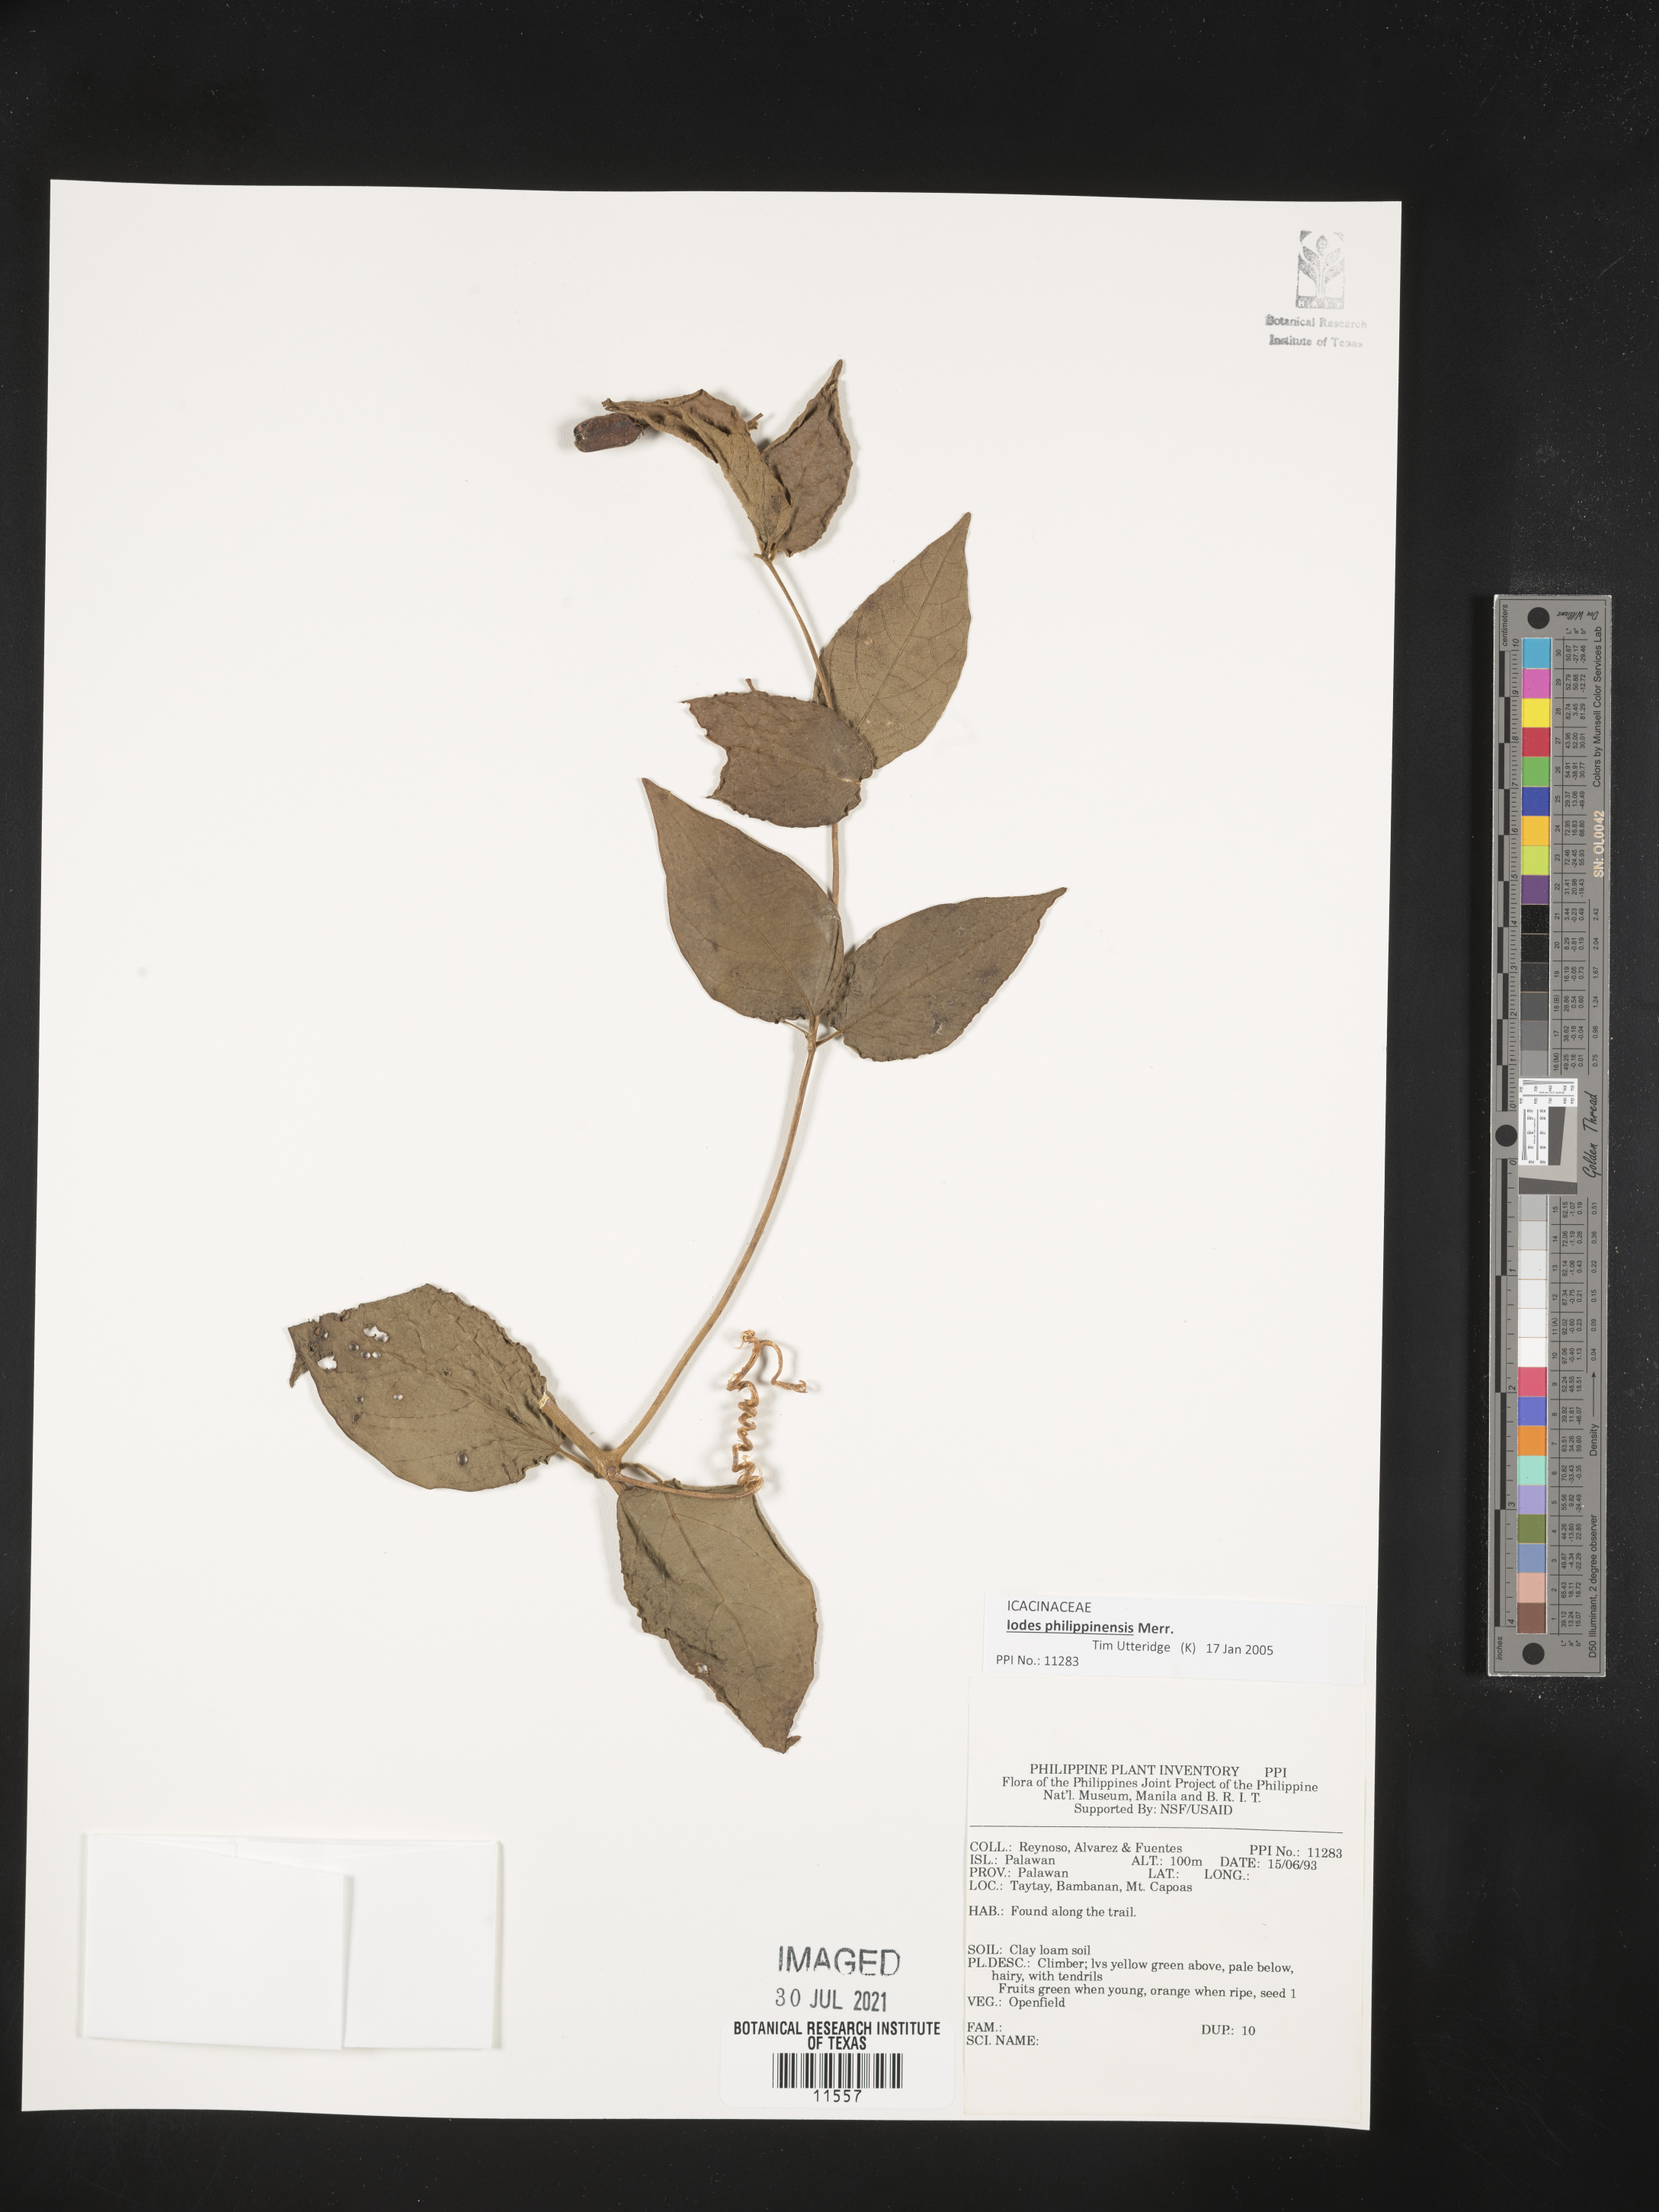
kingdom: Plantae
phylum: Tracheophyta
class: Magnoliopsida
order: Icacinales
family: Icacinaceae
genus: Iodes
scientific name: Iodes philippinensis
